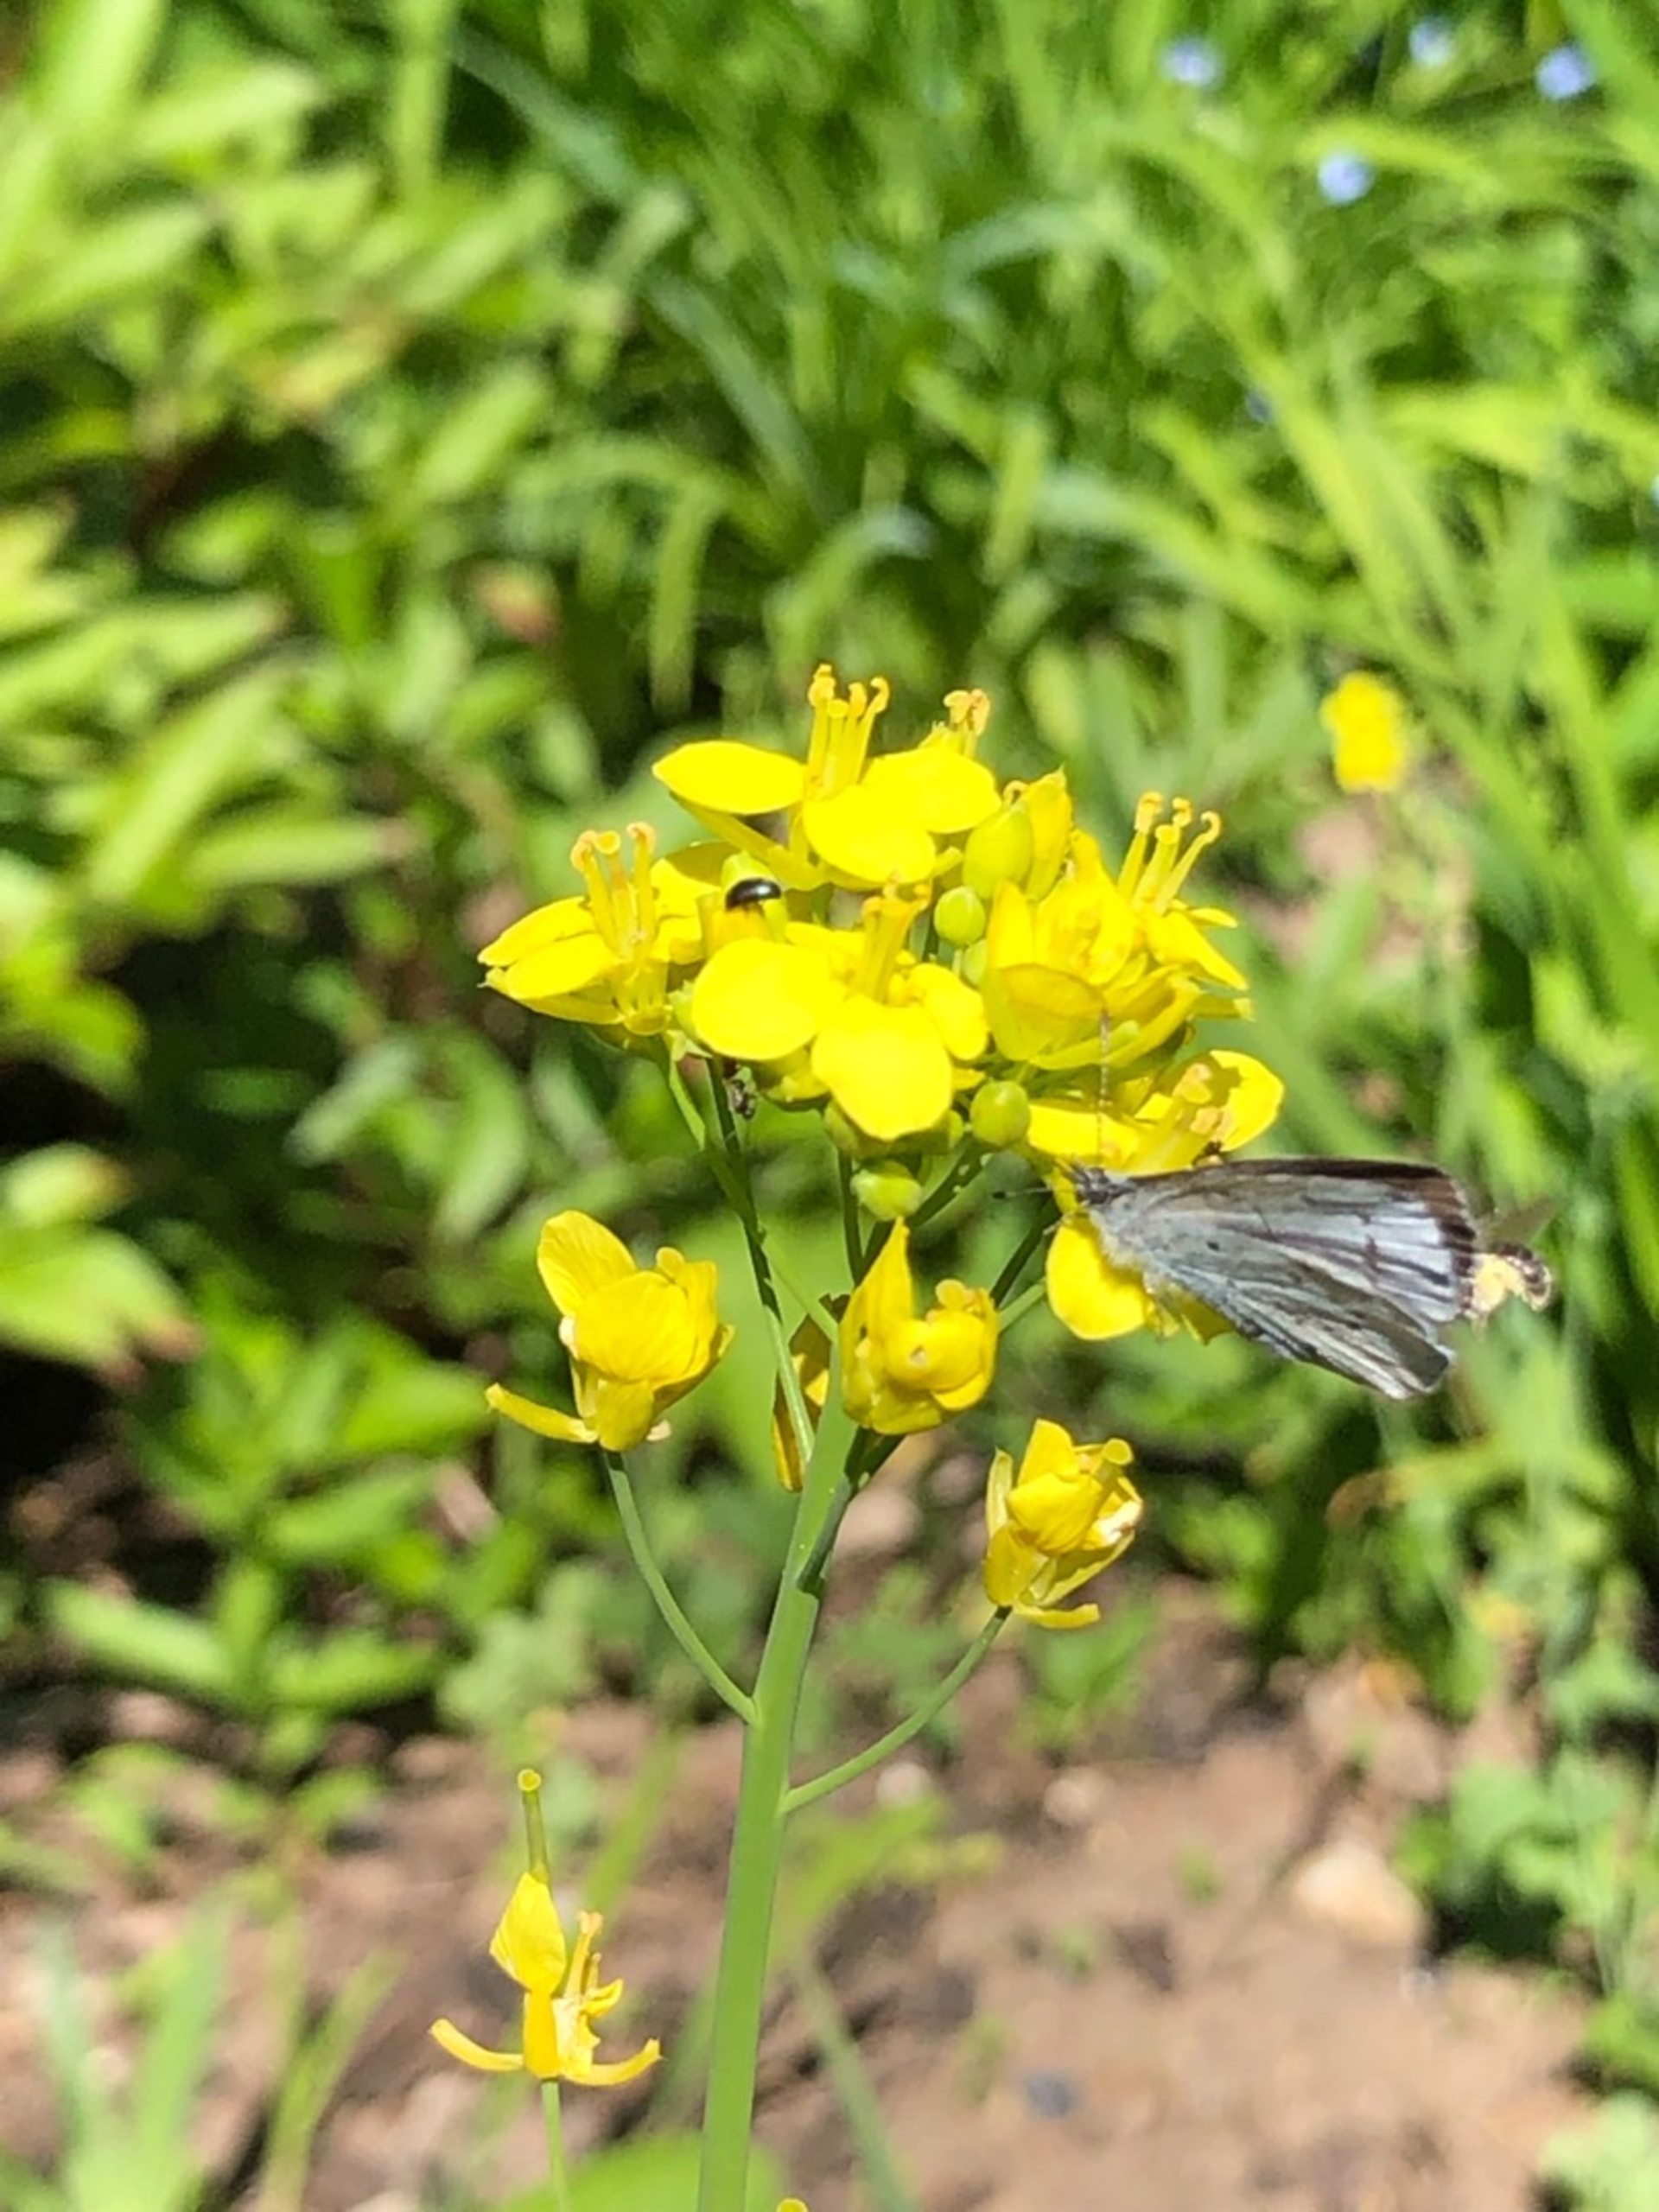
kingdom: Animalia
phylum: Arthropoda
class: Insecta
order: Lepidoptera
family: Lycaenidae
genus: Celastrina
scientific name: Celastrina argiolus
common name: Skovblåfugl
